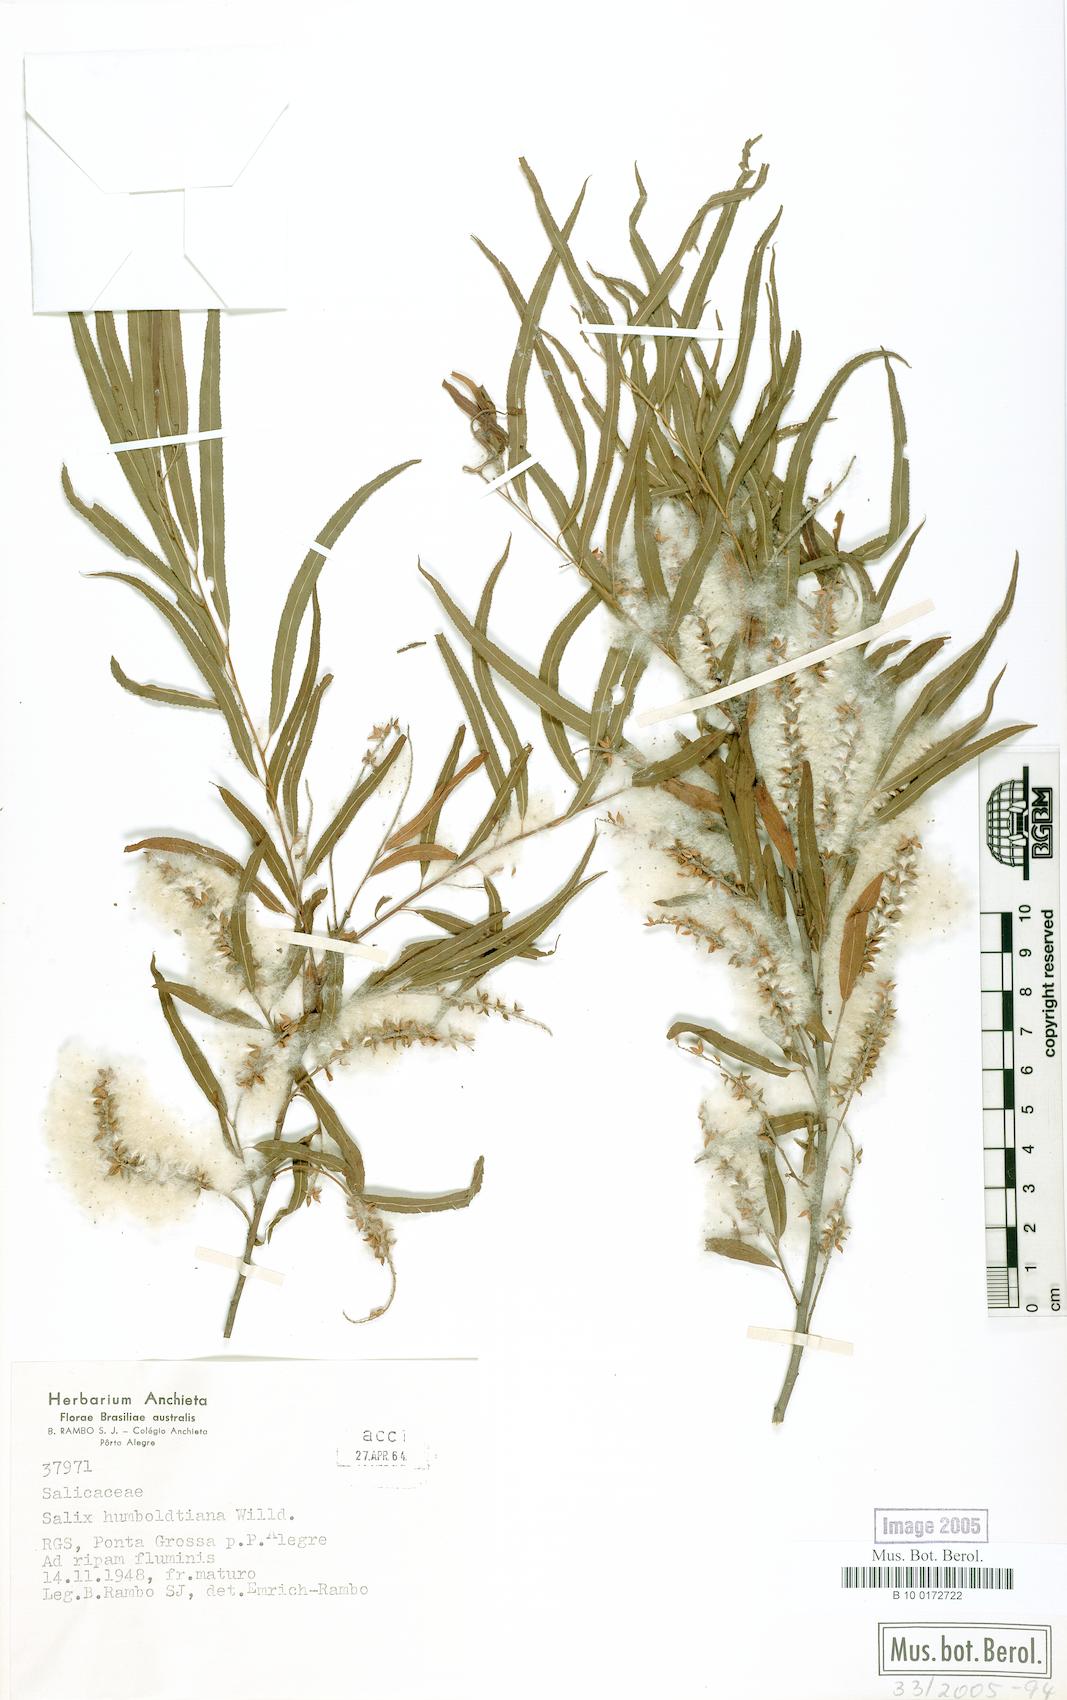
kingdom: Plantae
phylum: Tracheophyta
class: Magnoliopsida
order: Malpighiales
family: Salicaceae
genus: Salix
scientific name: Salix humboldtiana
